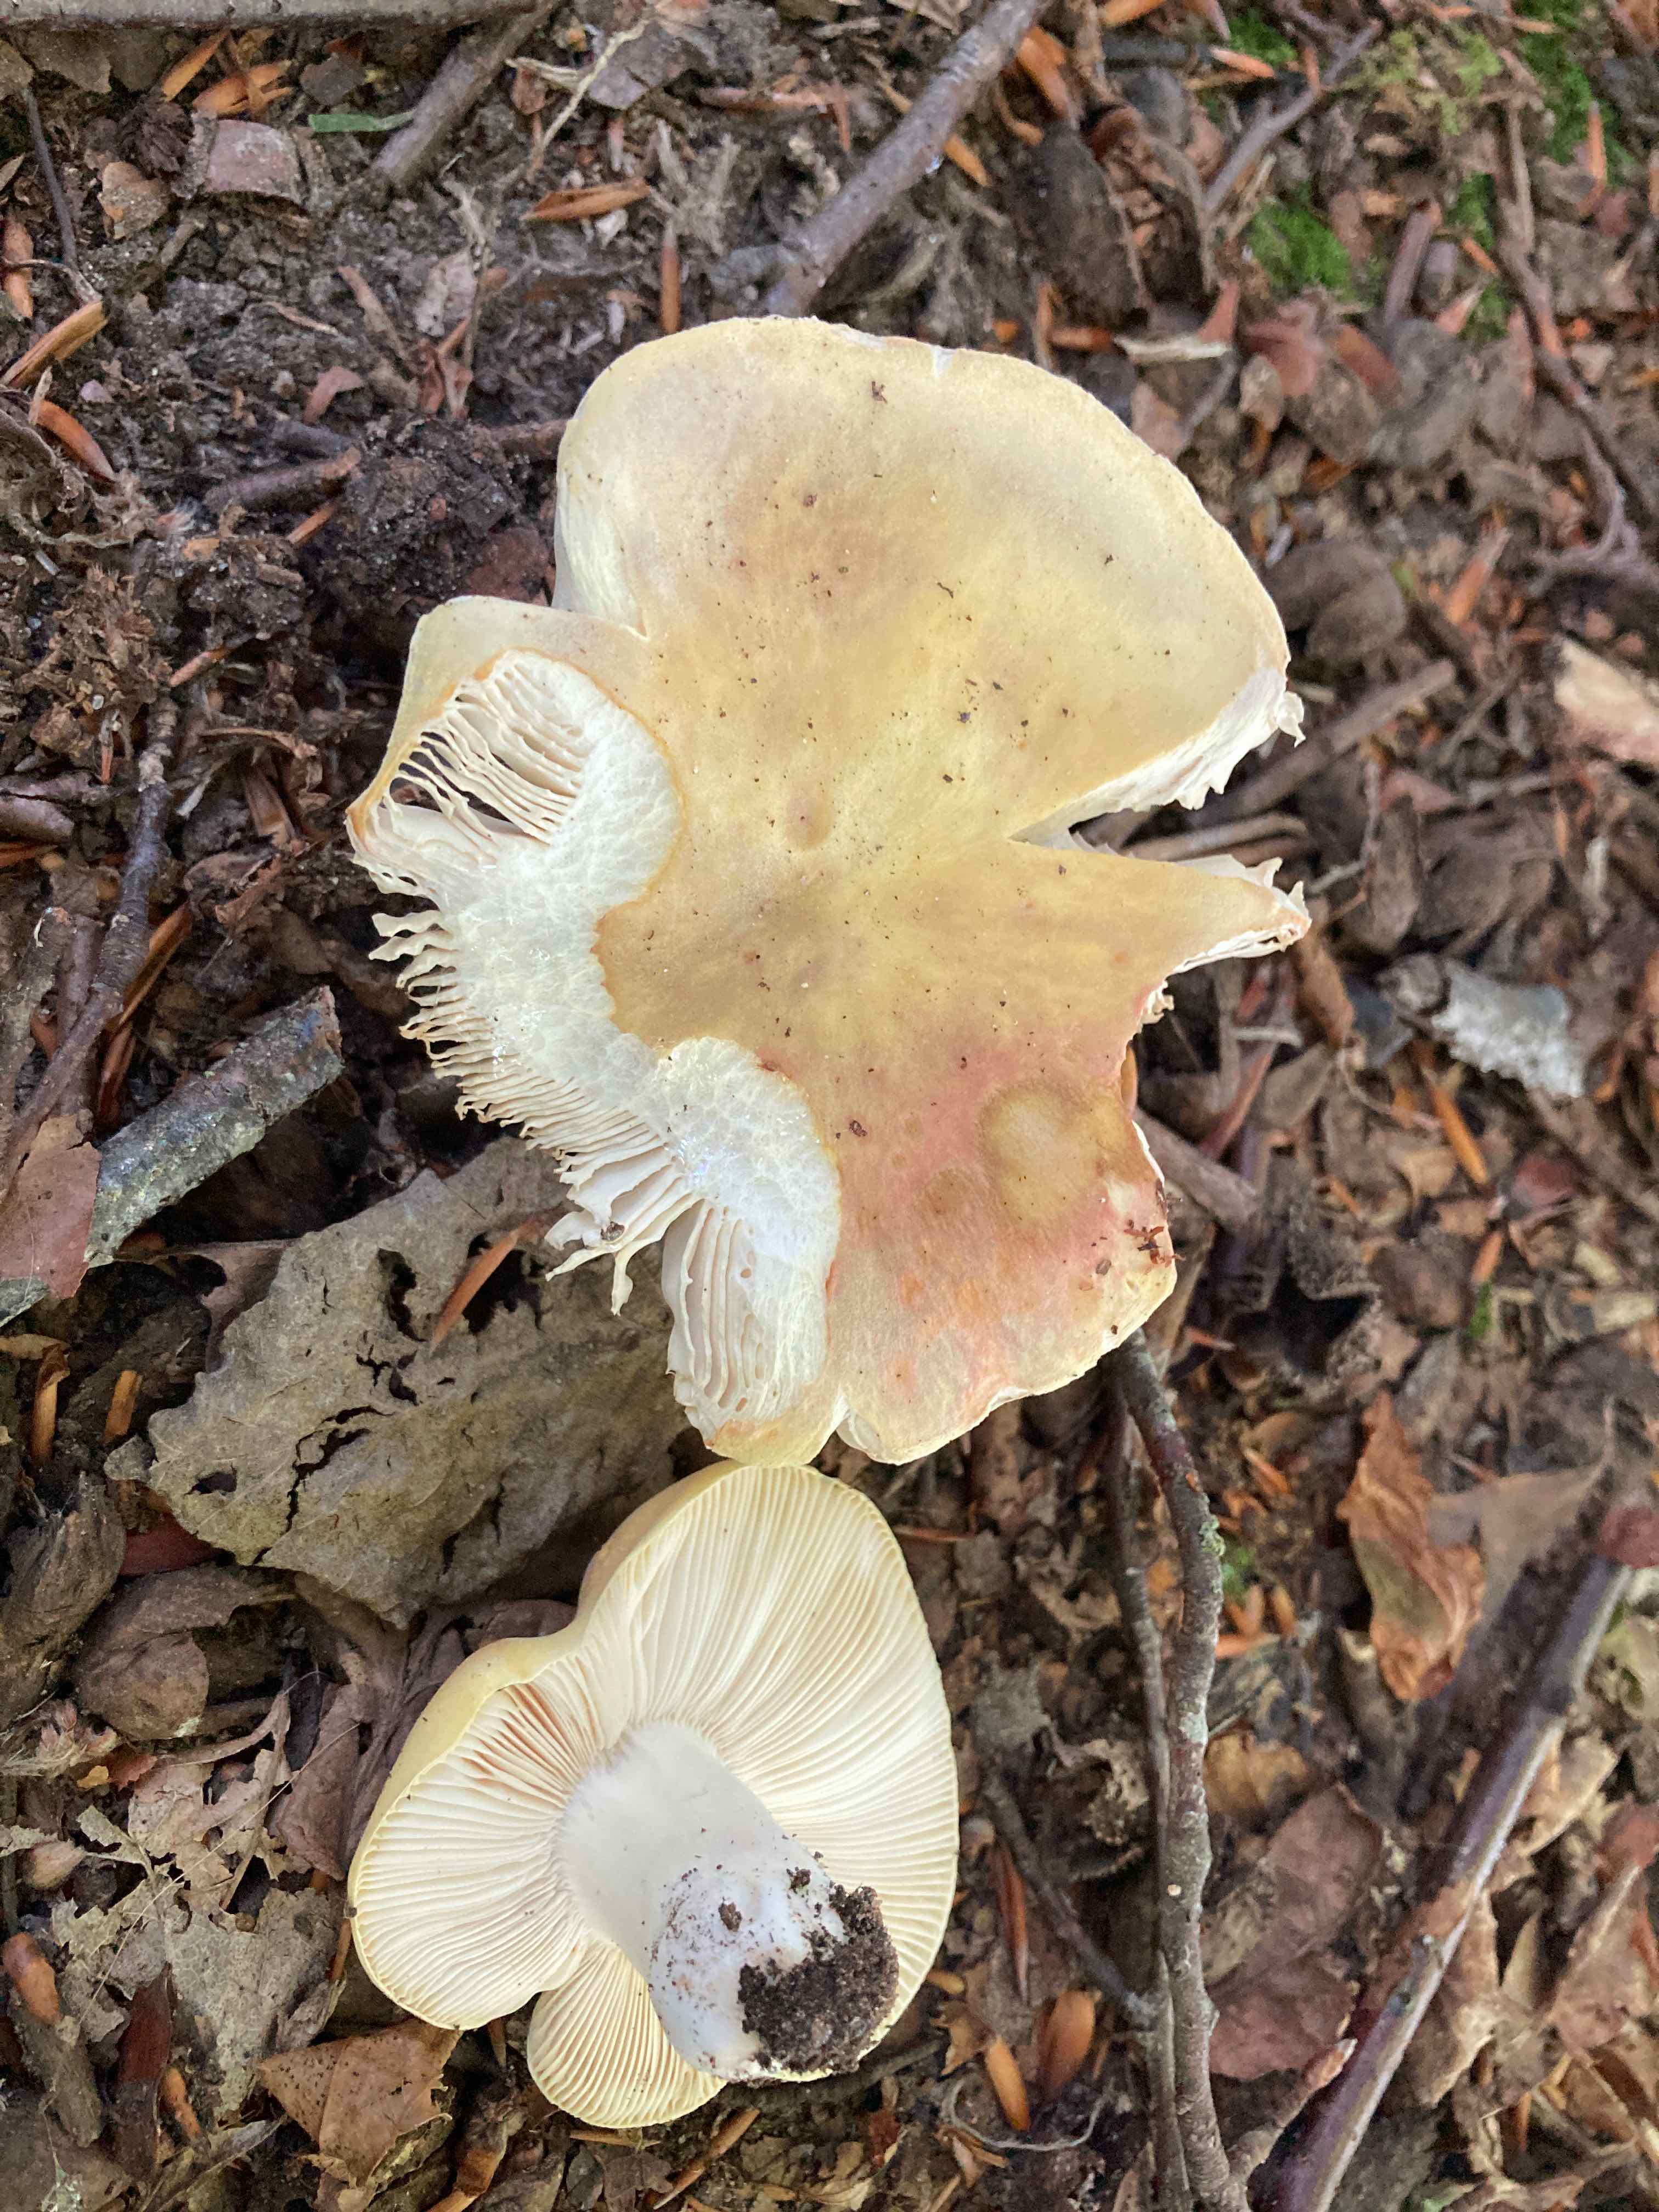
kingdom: Fungi
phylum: Basidiomycota
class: Agaricomycetes
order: Russulales
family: Russulaceae
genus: Russula
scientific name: Russula violeipes
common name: ferskengul skørhat
